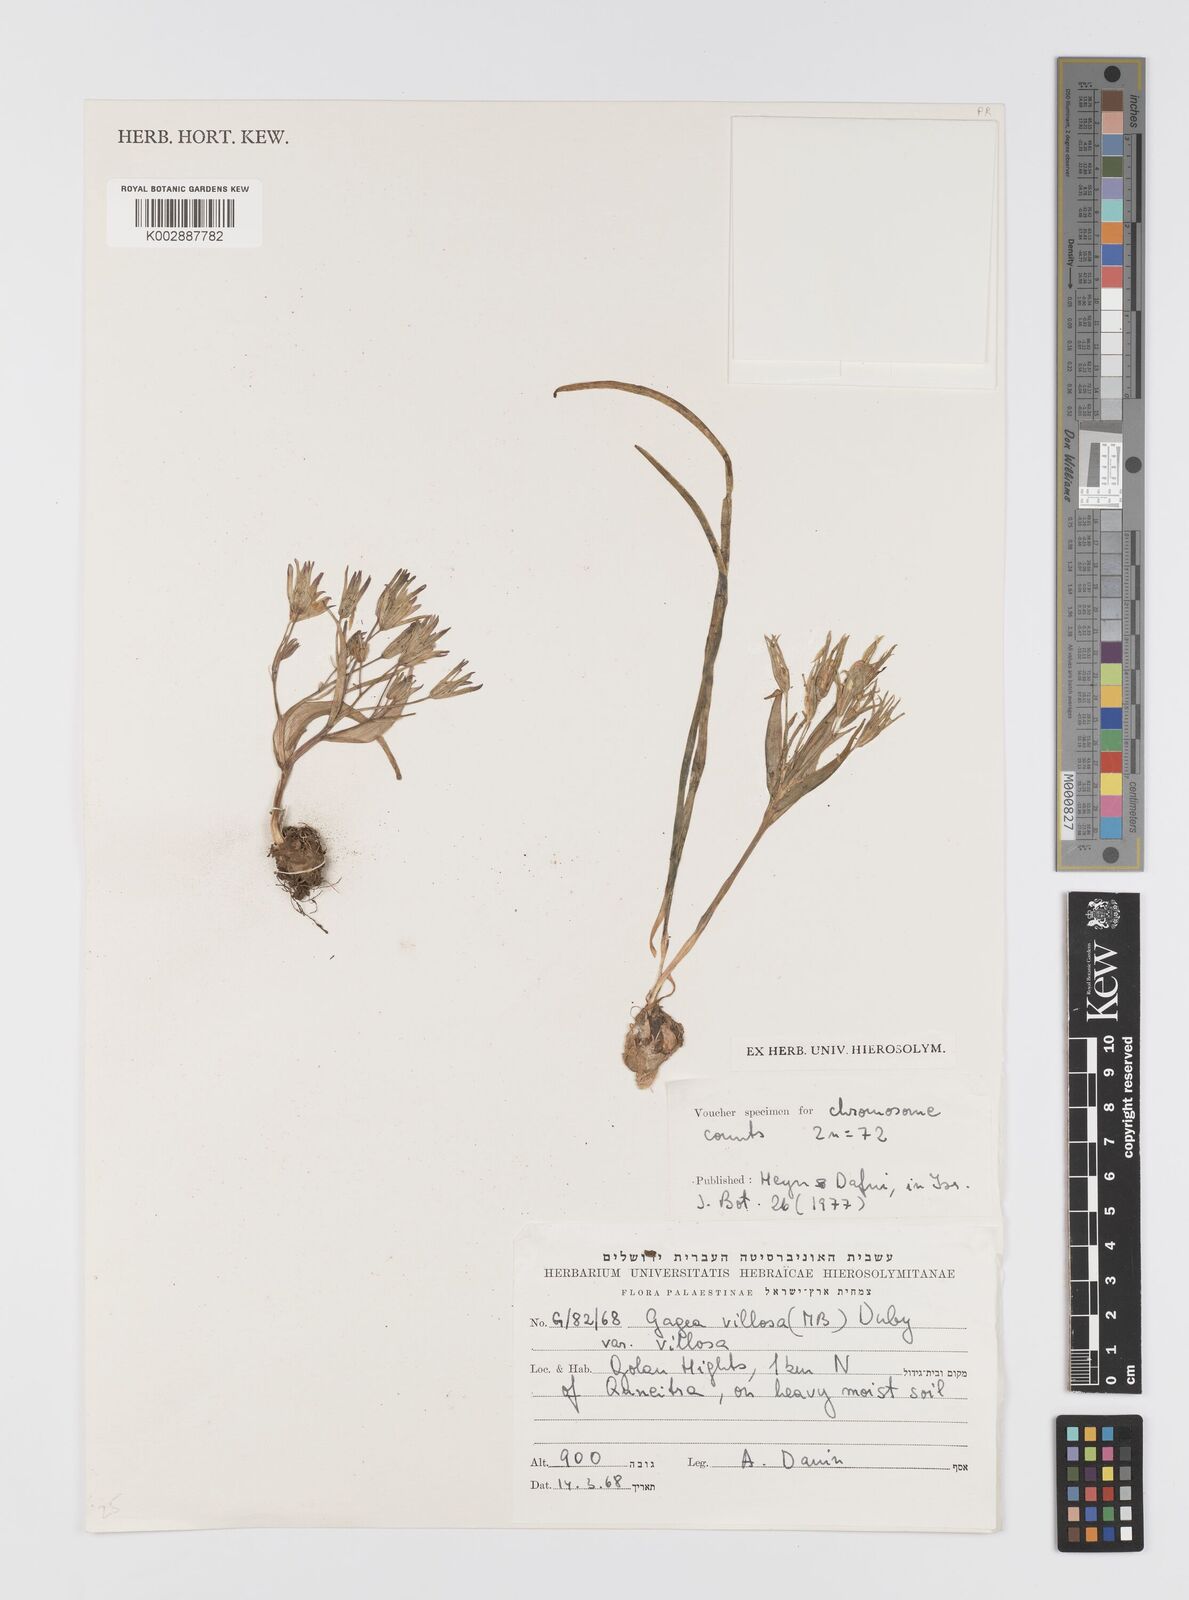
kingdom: Plantae
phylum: Tracheophyta
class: Liliopsida
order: Liliales
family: Liliaceae
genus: Gagea
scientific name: Gagea villosa
